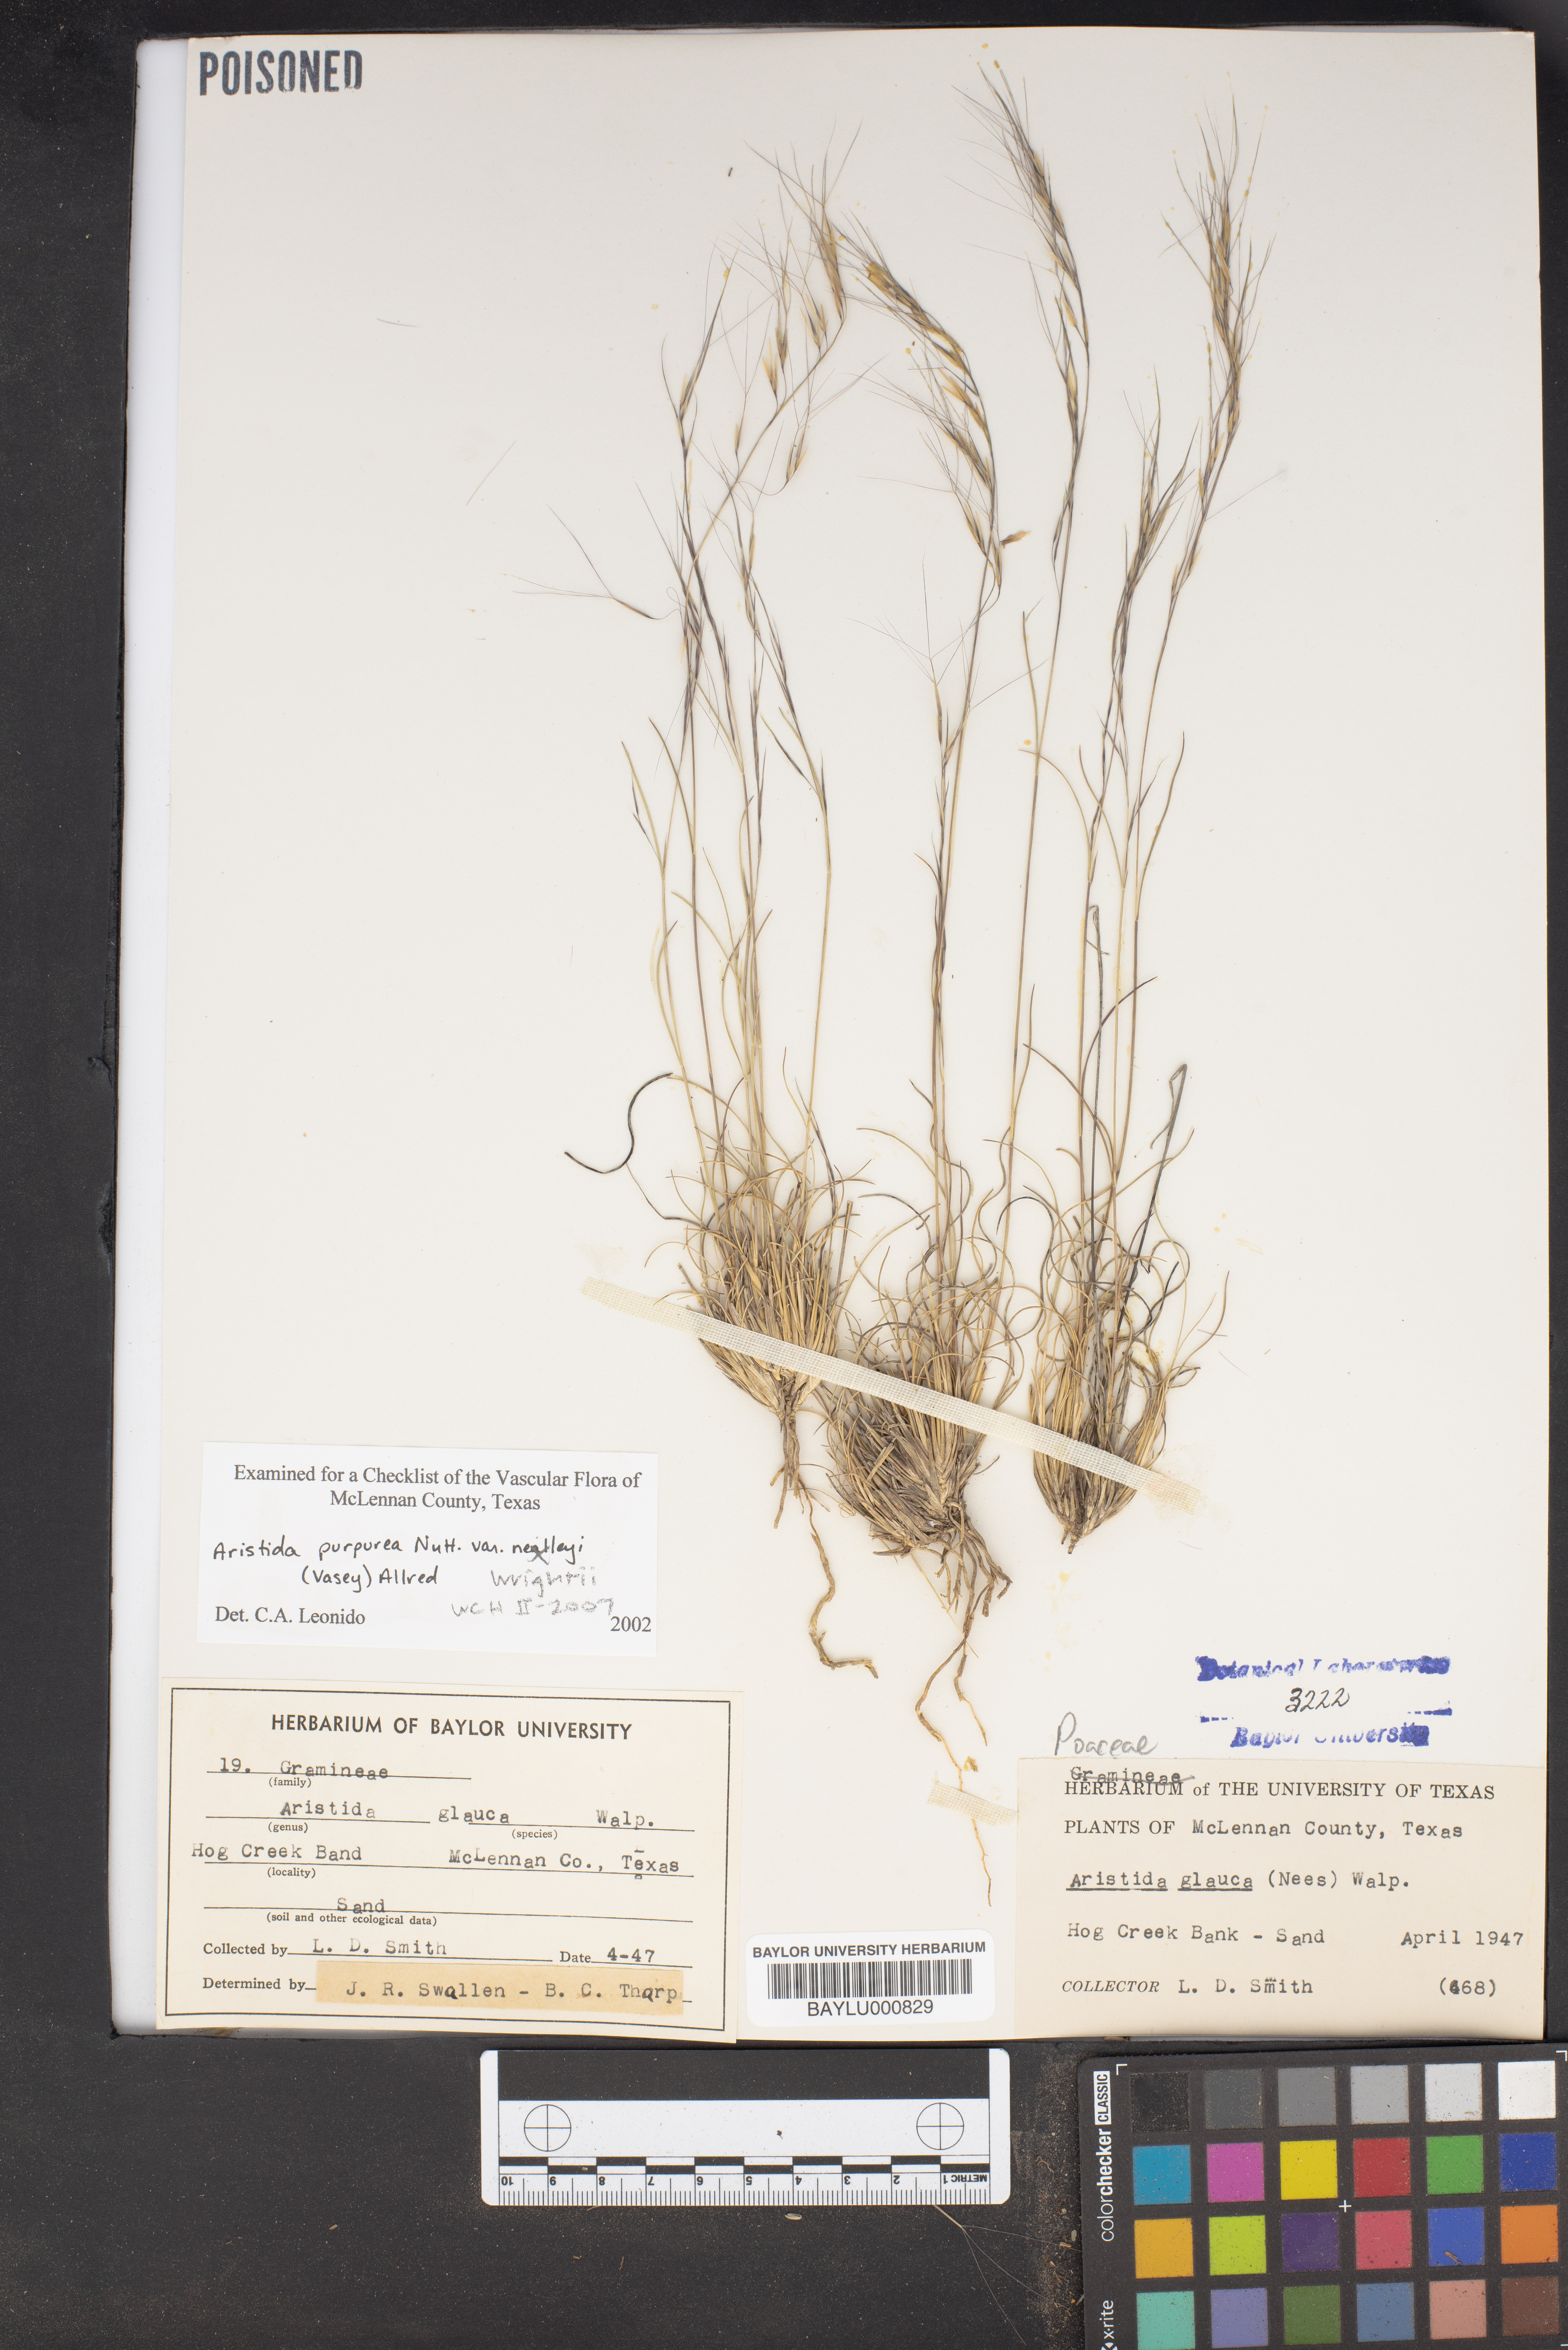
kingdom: Plantae
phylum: Tracheophyta
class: Liliopsida
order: Poales
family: Poaceae
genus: Aristida
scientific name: Aristida glauca
